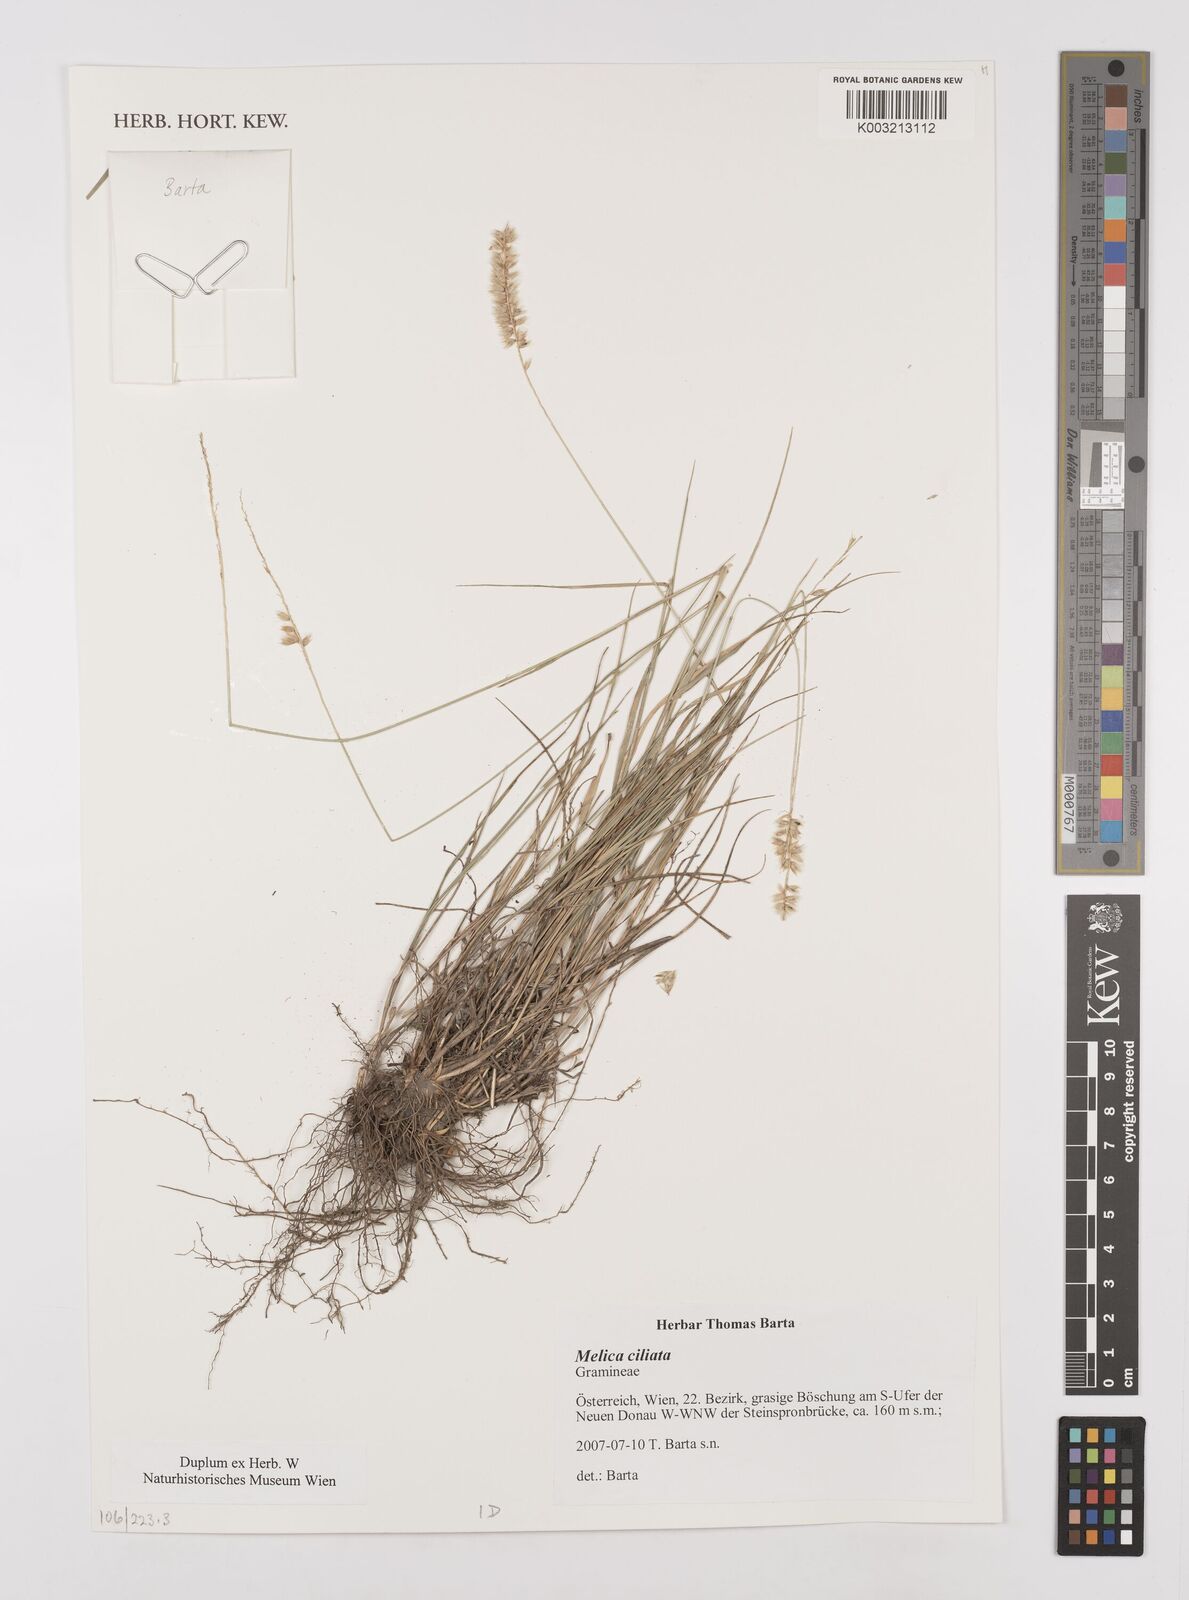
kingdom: Plantae
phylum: Tracheophyta
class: Liliopsida
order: Poales
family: Poaceae
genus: Melica
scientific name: Melica ciliata
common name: Hairy melicgrass
